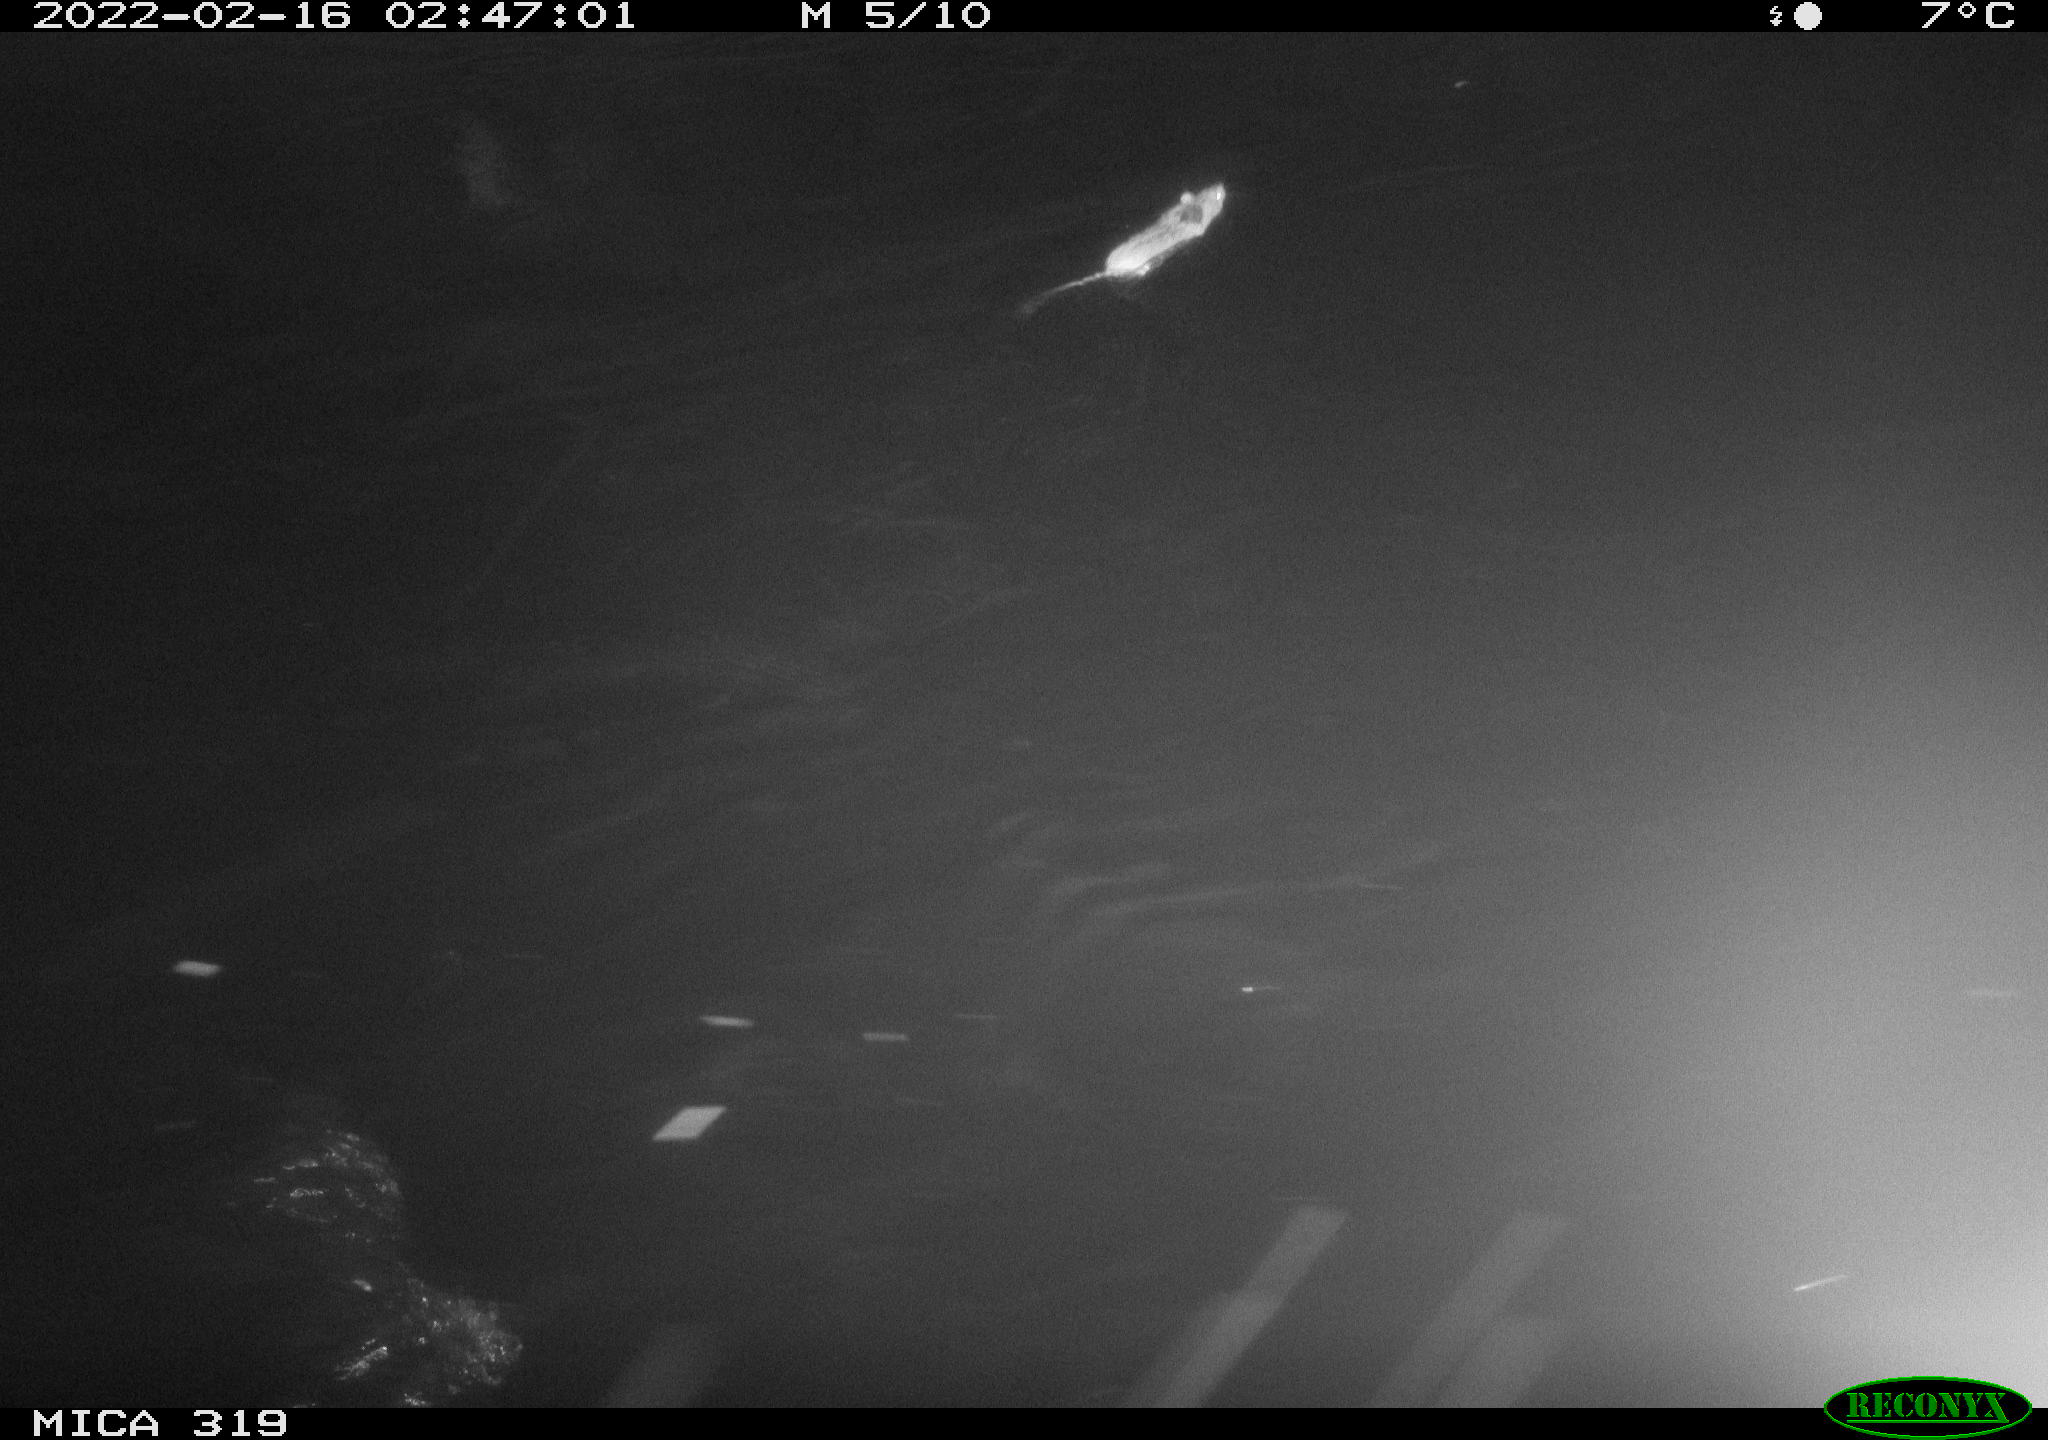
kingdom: Animalia
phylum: Chordata
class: Mammalia
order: Rodentia
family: Muridae
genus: Rattus
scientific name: Rattus norvegicus
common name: Brown rat
